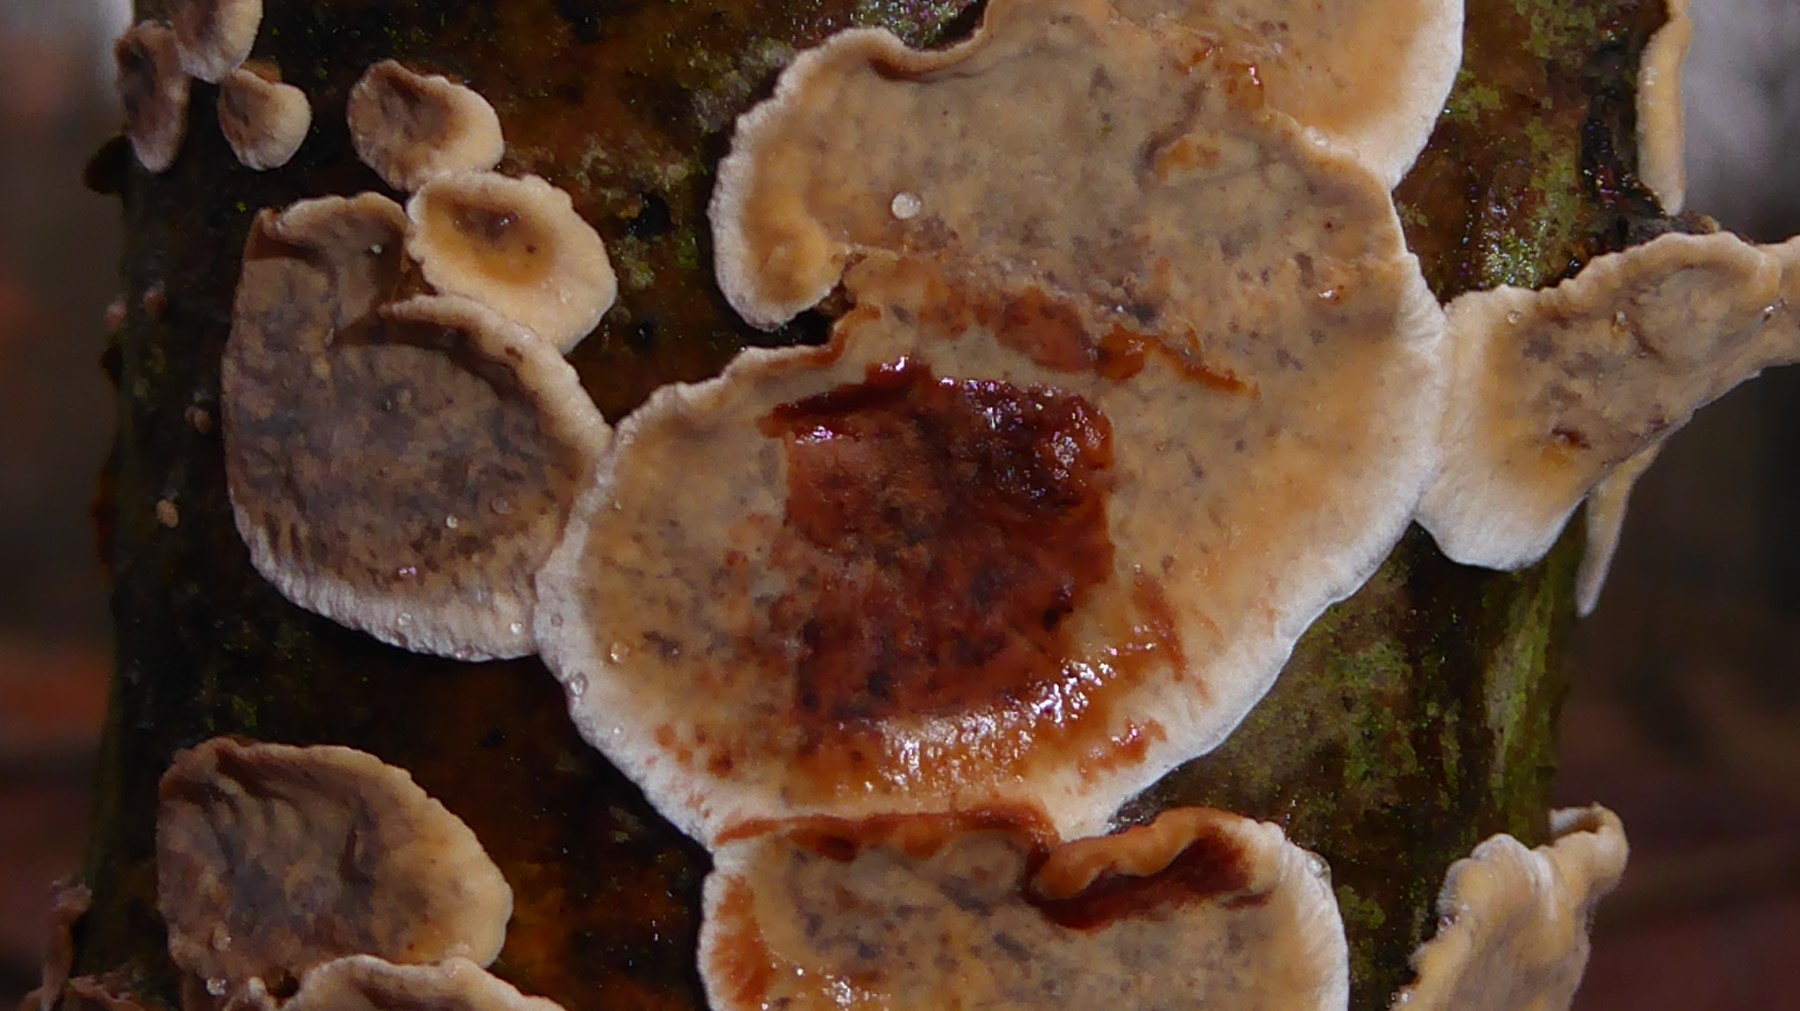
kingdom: Fungi
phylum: Basidiomycota
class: Agaricomycetes
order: Russulales
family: Stereaceae
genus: Stereum
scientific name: Stereum rugosum
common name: rynket lædersvamp
